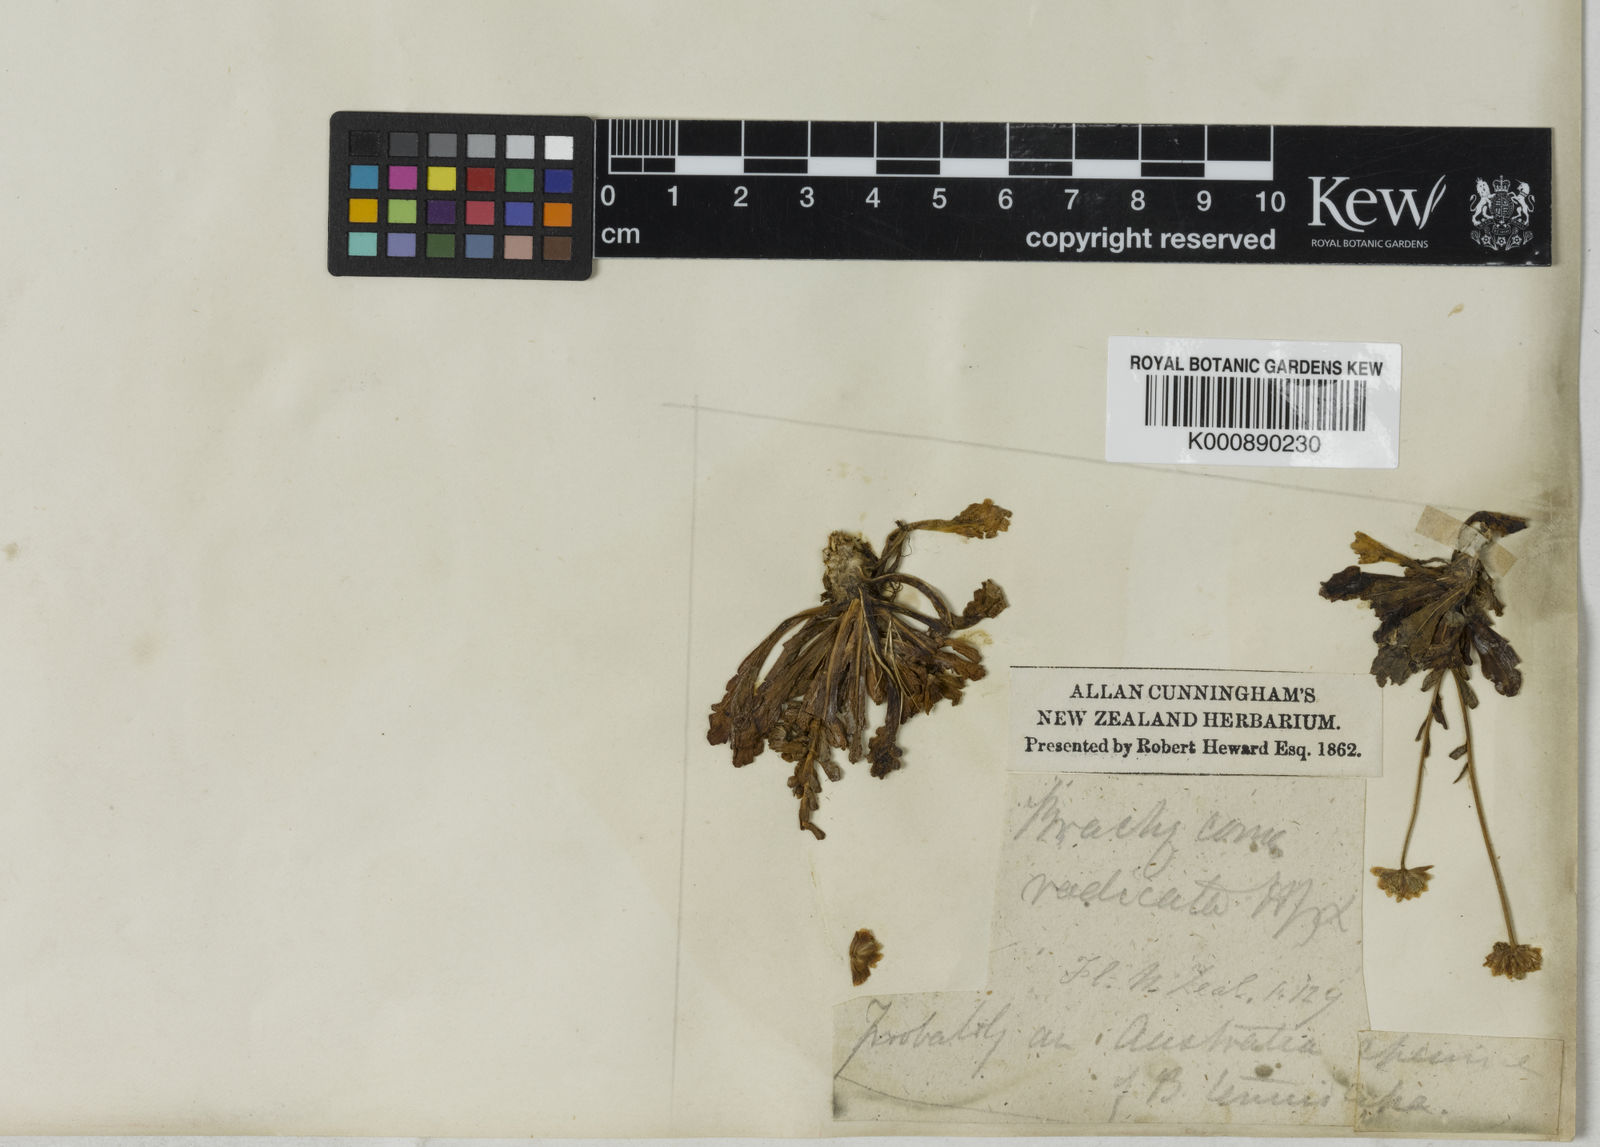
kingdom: Plantae
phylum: Tracheophyta
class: Magnoliopsida
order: Asterales
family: Asteraceae
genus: Brachyscome
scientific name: Brachyscome radicata
